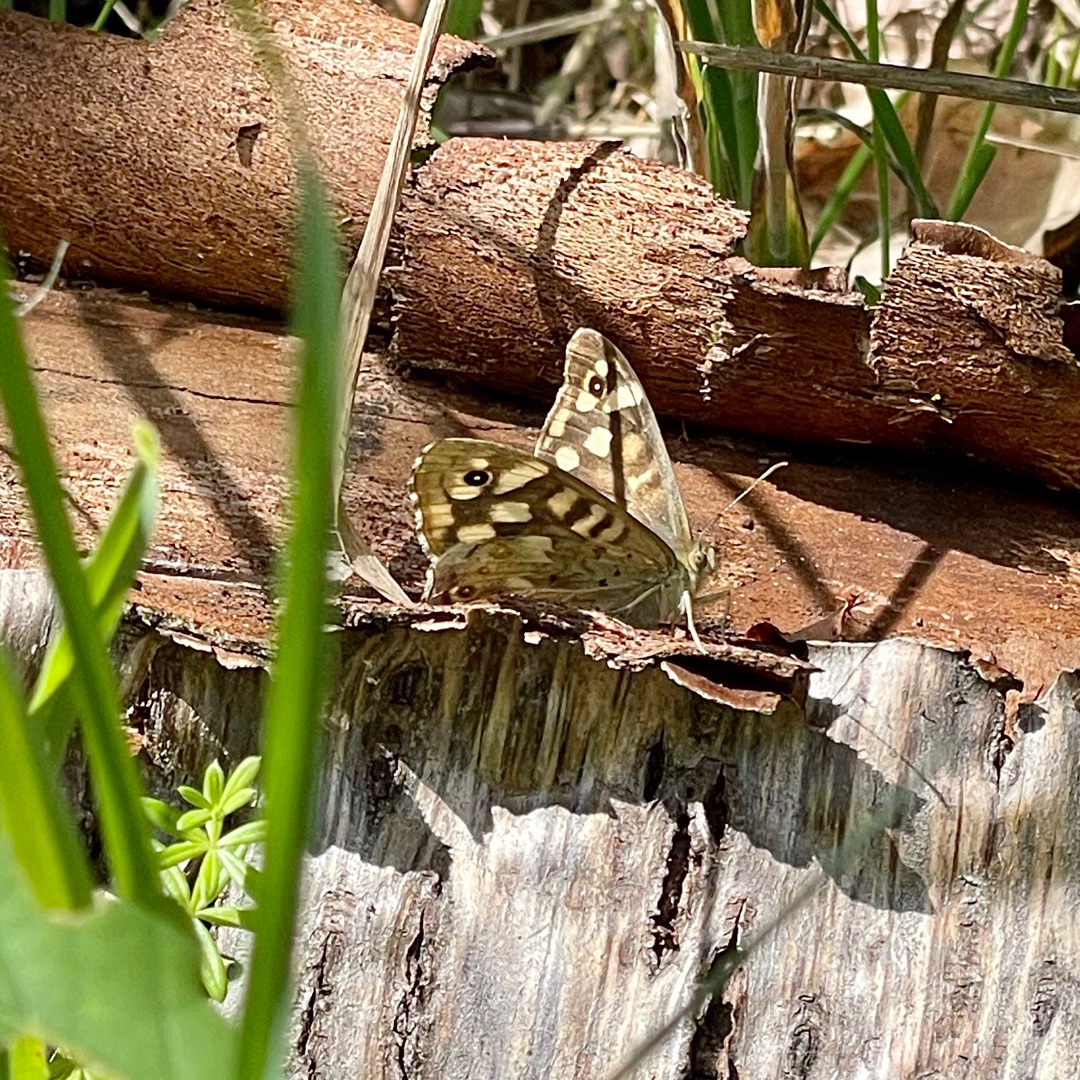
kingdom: Animalia
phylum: Arthropoda
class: Insecta
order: Lepidoptera
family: Nymphalidae
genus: Pararge
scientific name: Pararge aegeria
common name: Skovrandøje
